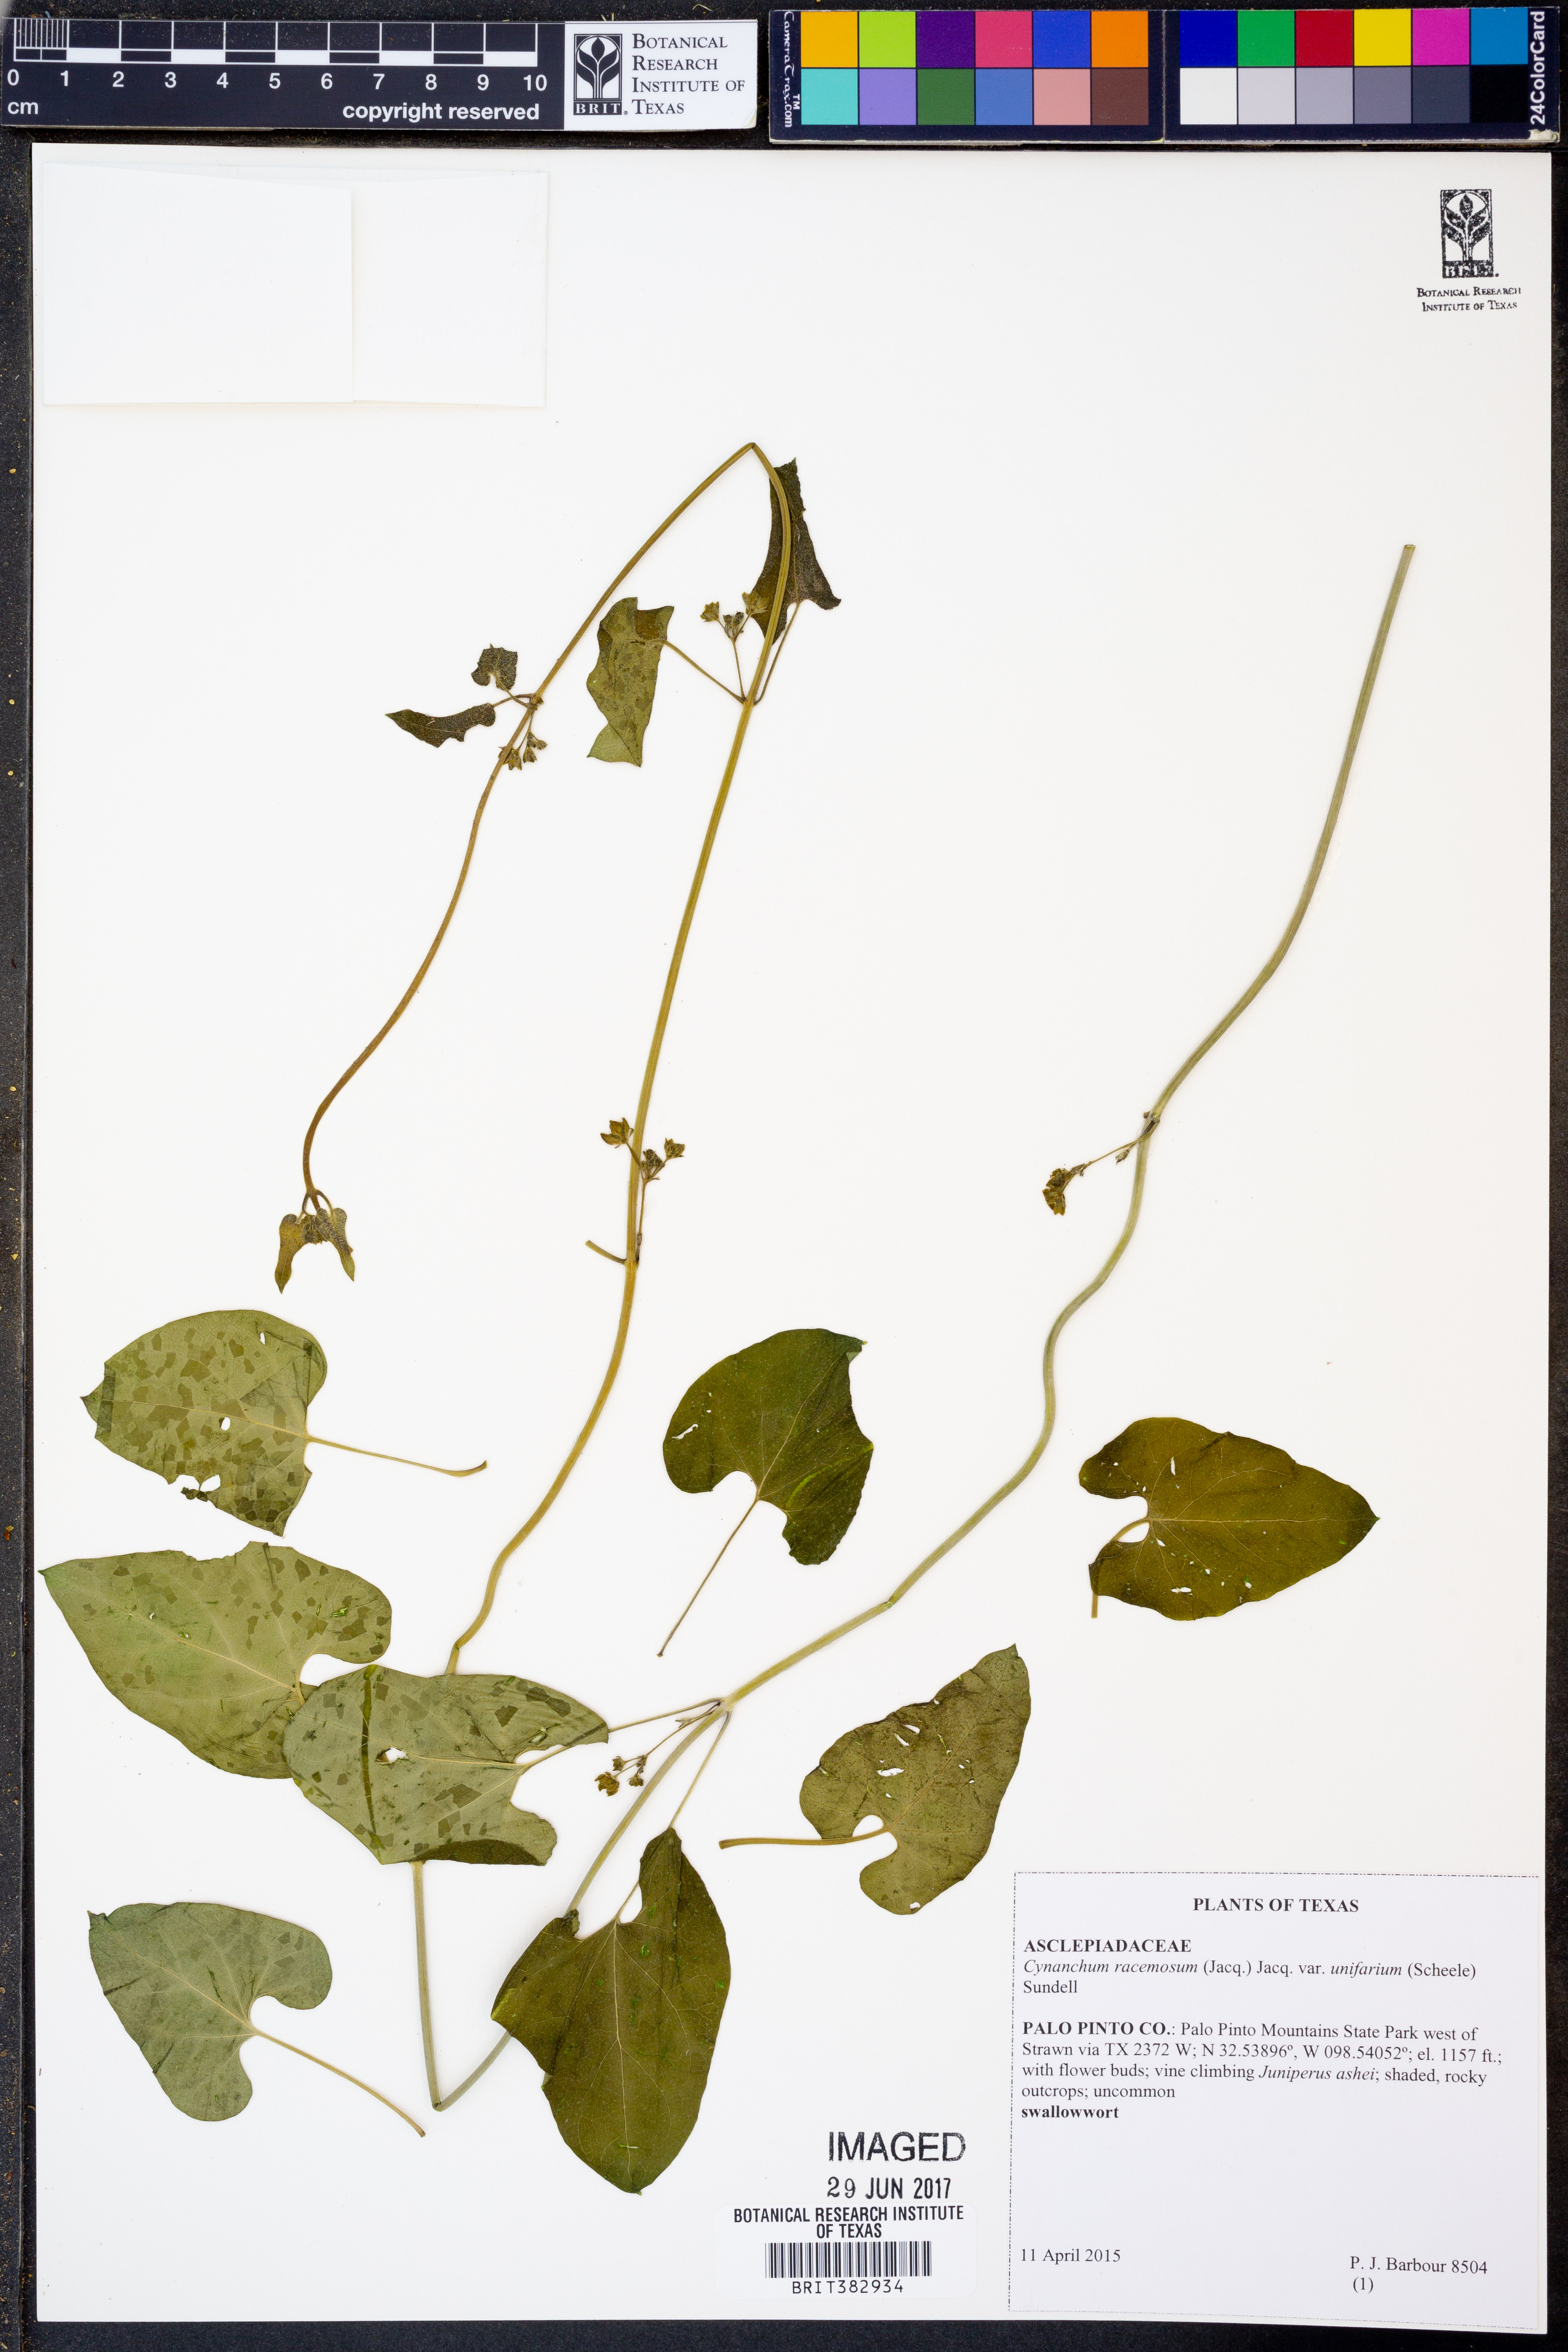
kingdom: Plantae
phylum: Tracheophyta
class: Magnoliopsida
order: Gentianales
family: Apocynaceae
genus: Cynanchum
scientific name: Cynanchum racemosum
